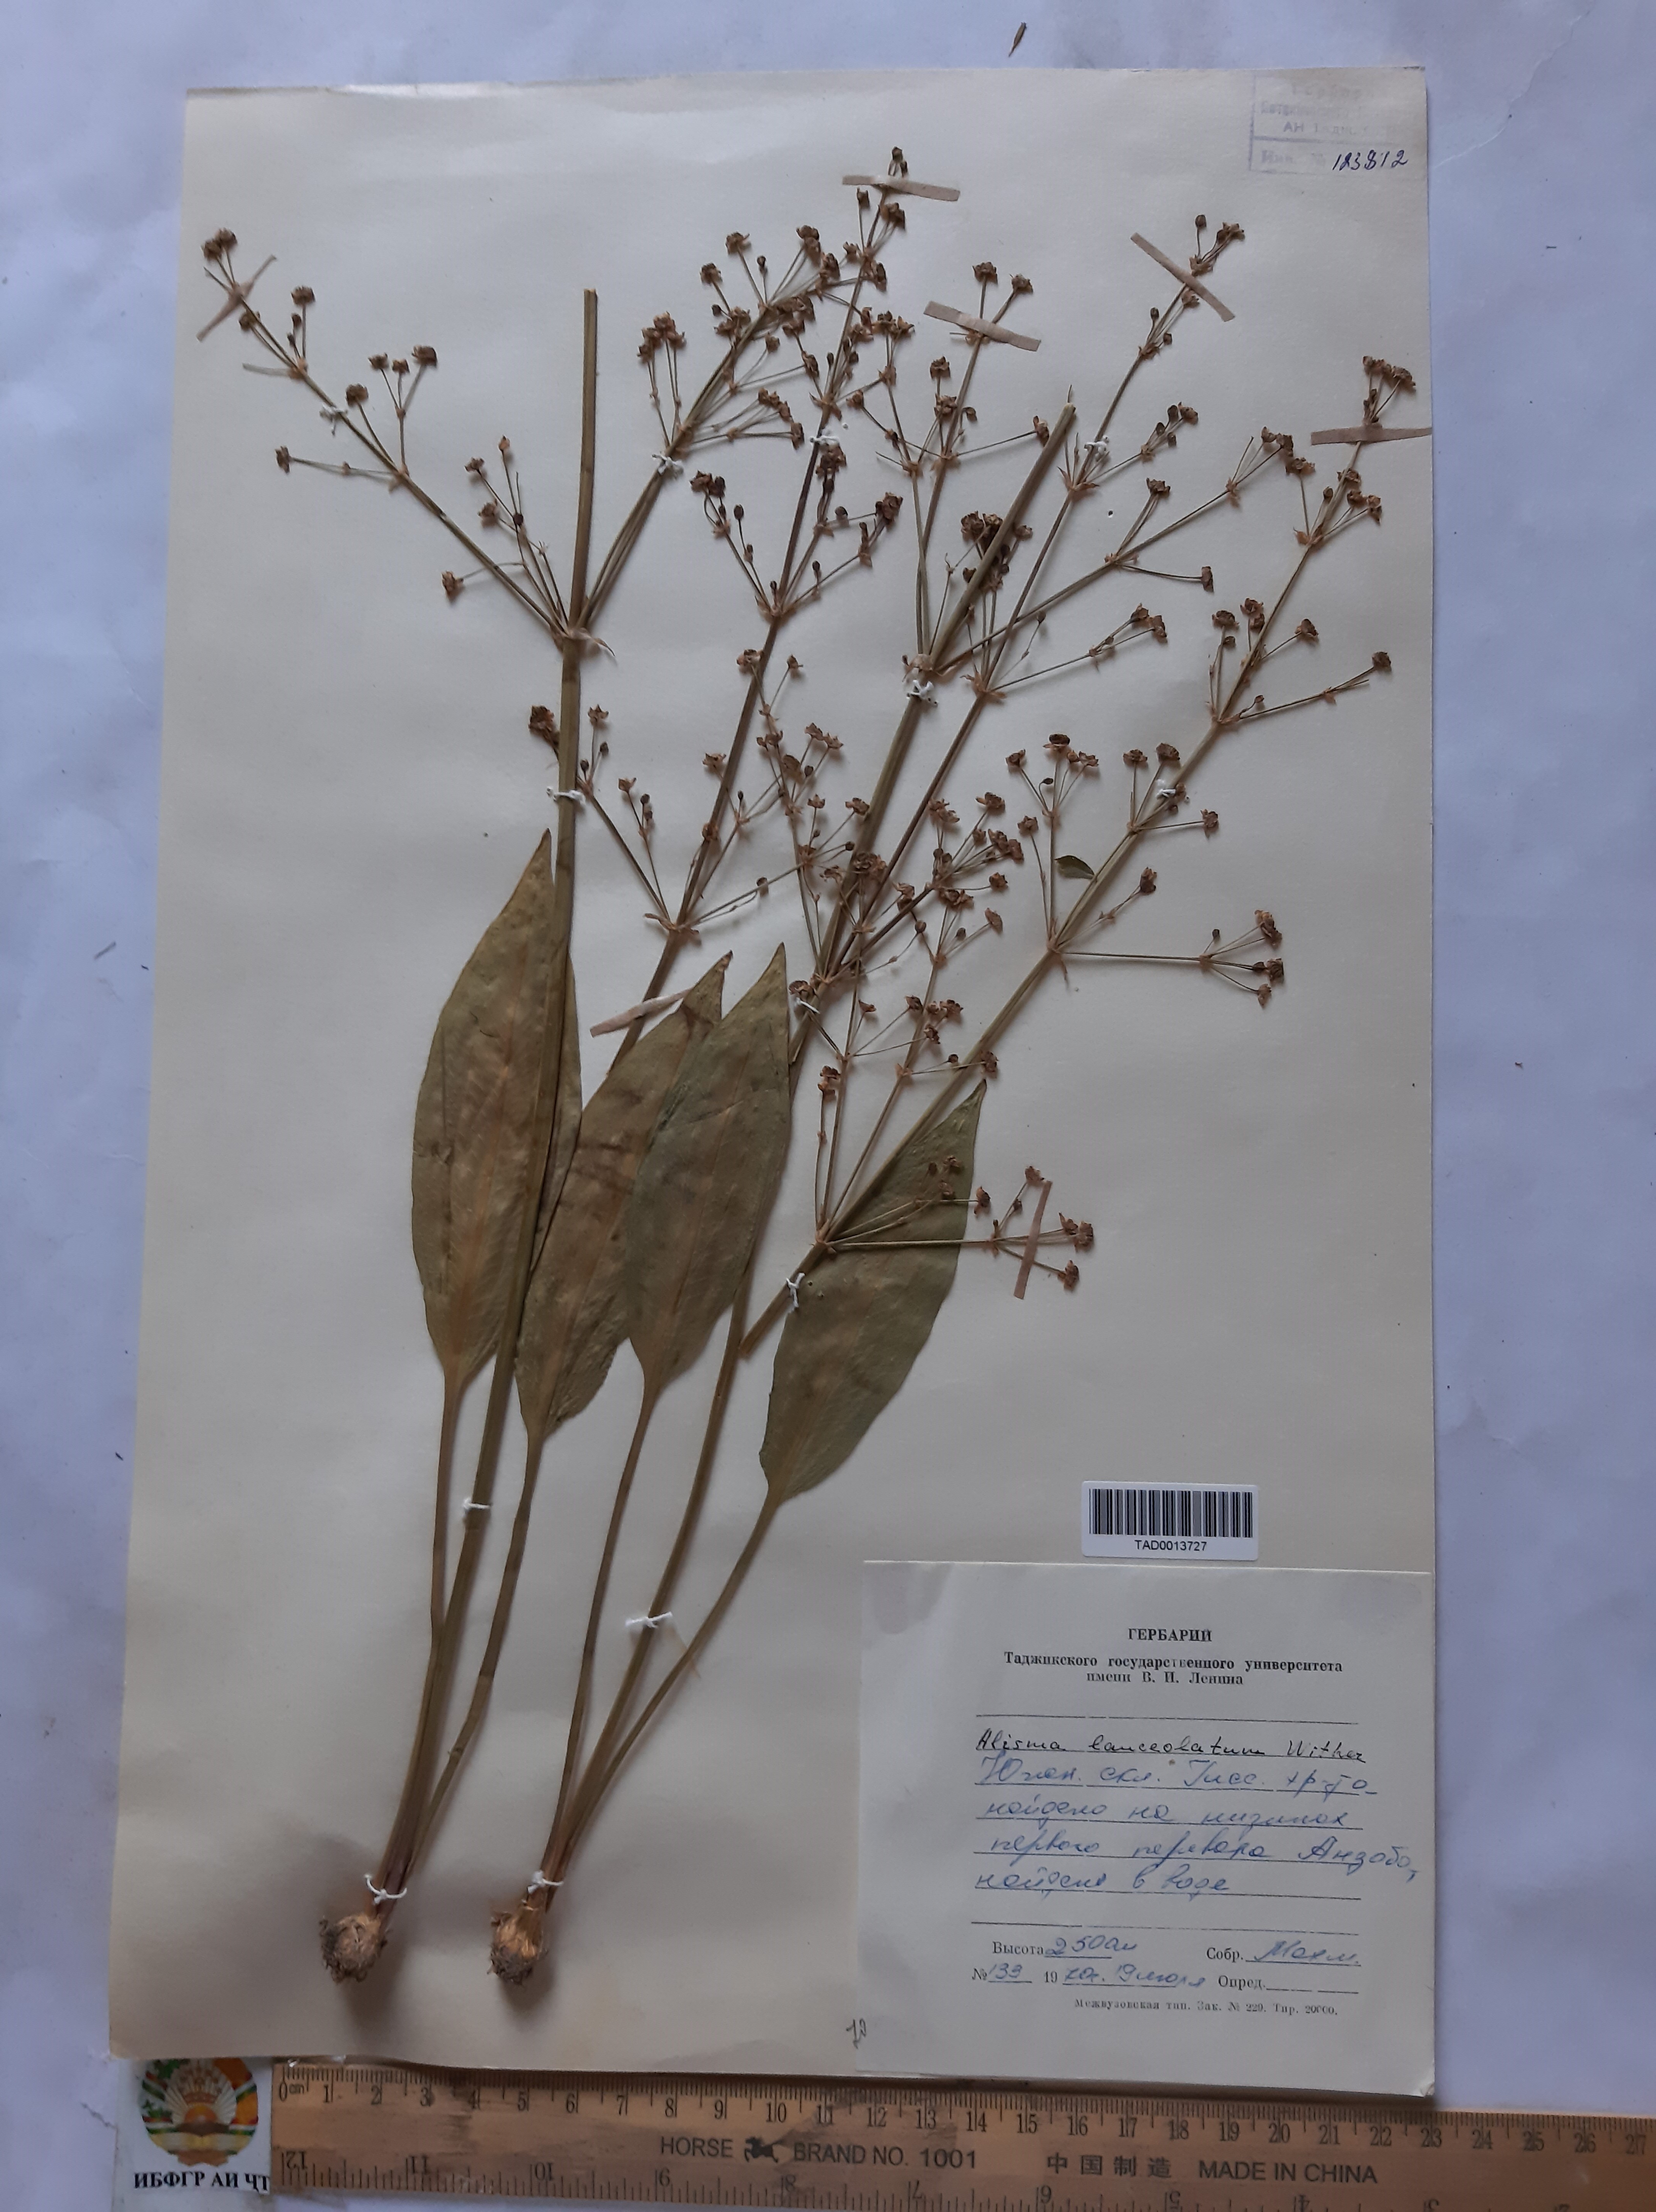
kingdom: Plantae
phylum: Tracheophyta
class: Liliopsida
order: Alismatales
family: Alismataceae
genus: Alisma
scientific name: Alisma lanceolatum
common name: Narrow-leaved water-plantain
